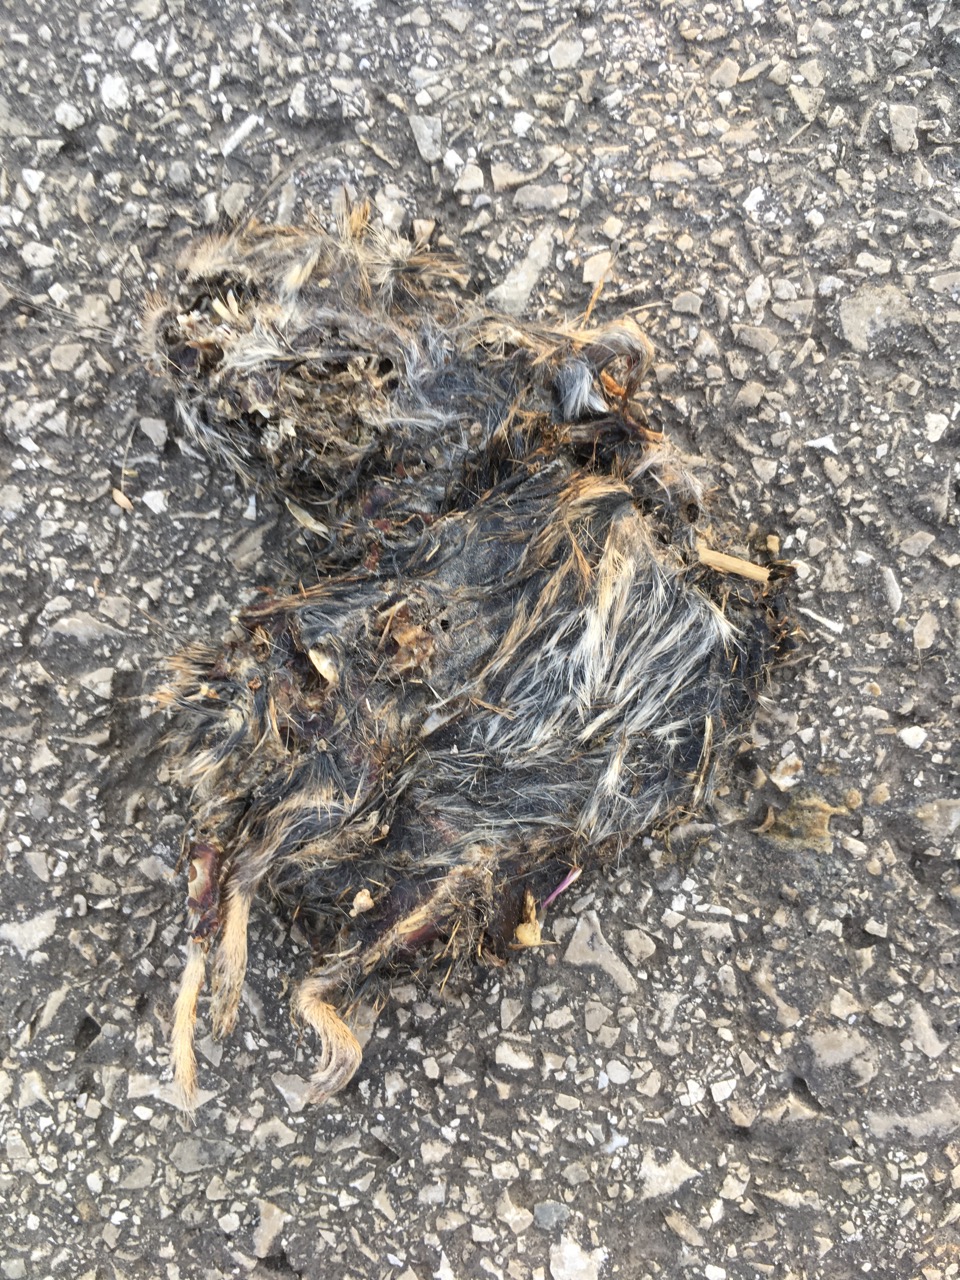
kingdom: Animalia
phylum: Chordata
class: Mammalia
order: Rodentia
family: Cricetidae
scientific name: Cricetidae
